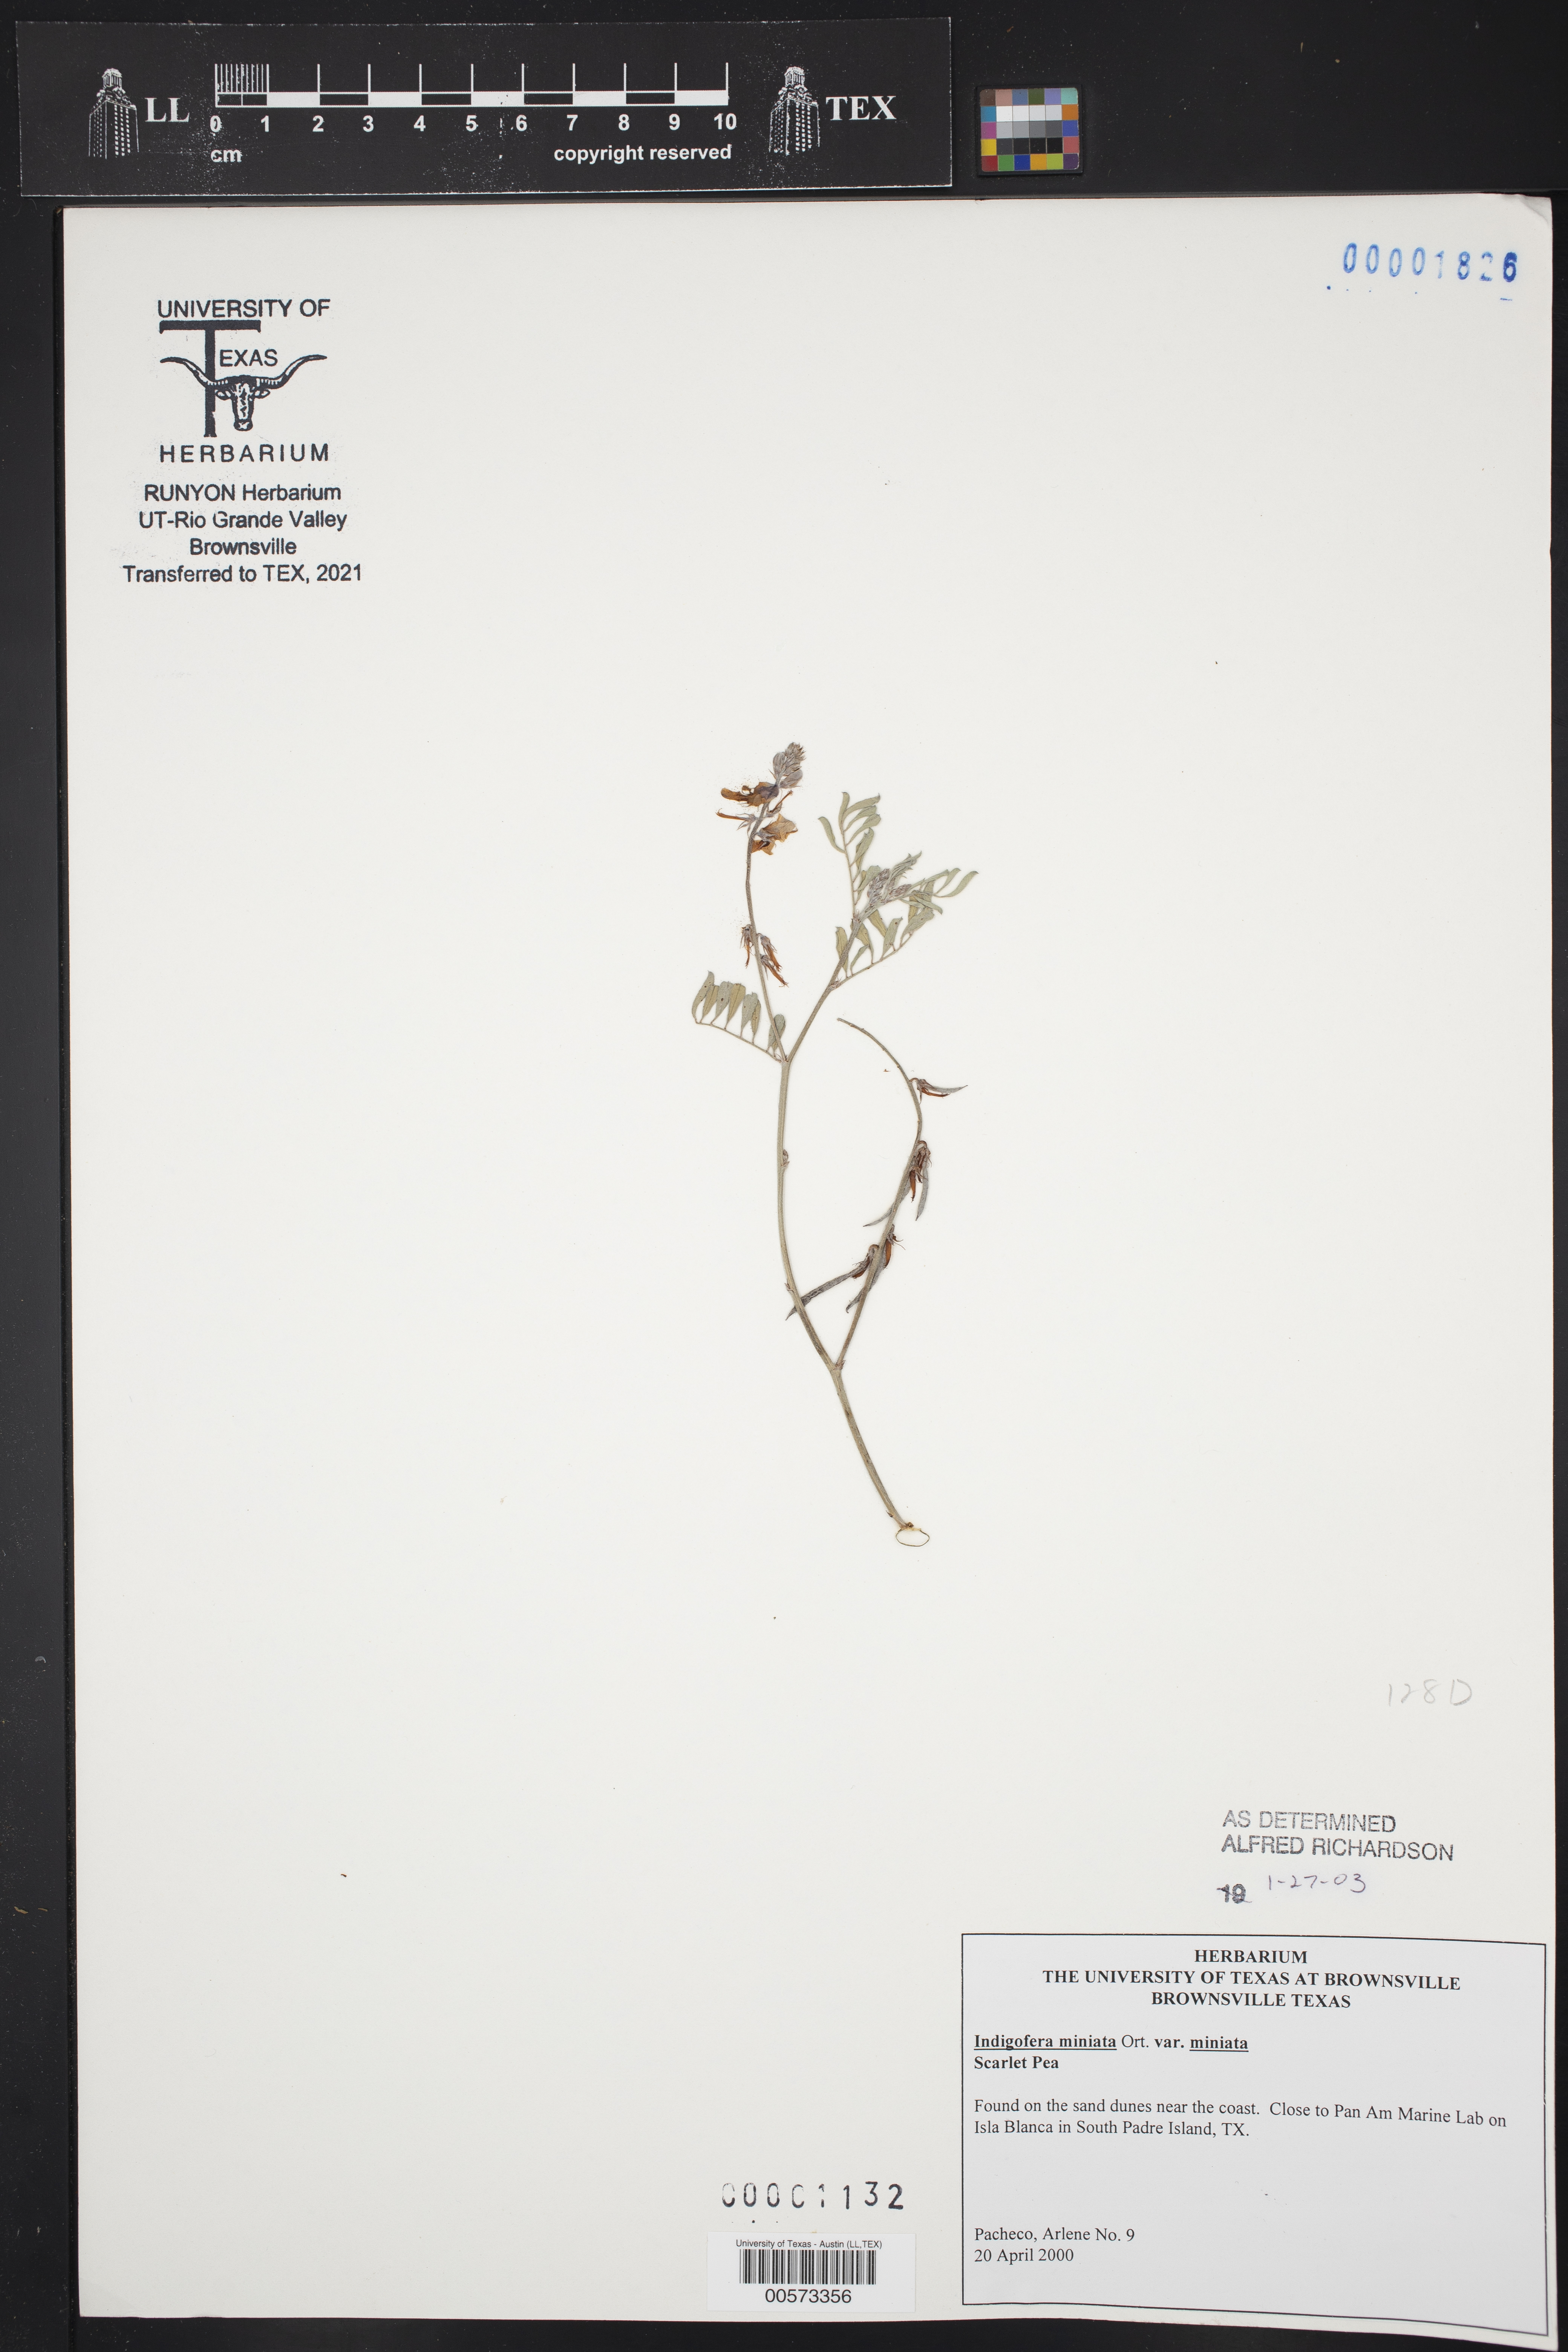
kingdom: Plantae
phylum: Tracheophyta
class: Magnoliopsida
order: Fabales
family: Fabaceae
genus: Indigofera
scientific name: Indigofera miniata
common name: Coast indigo
